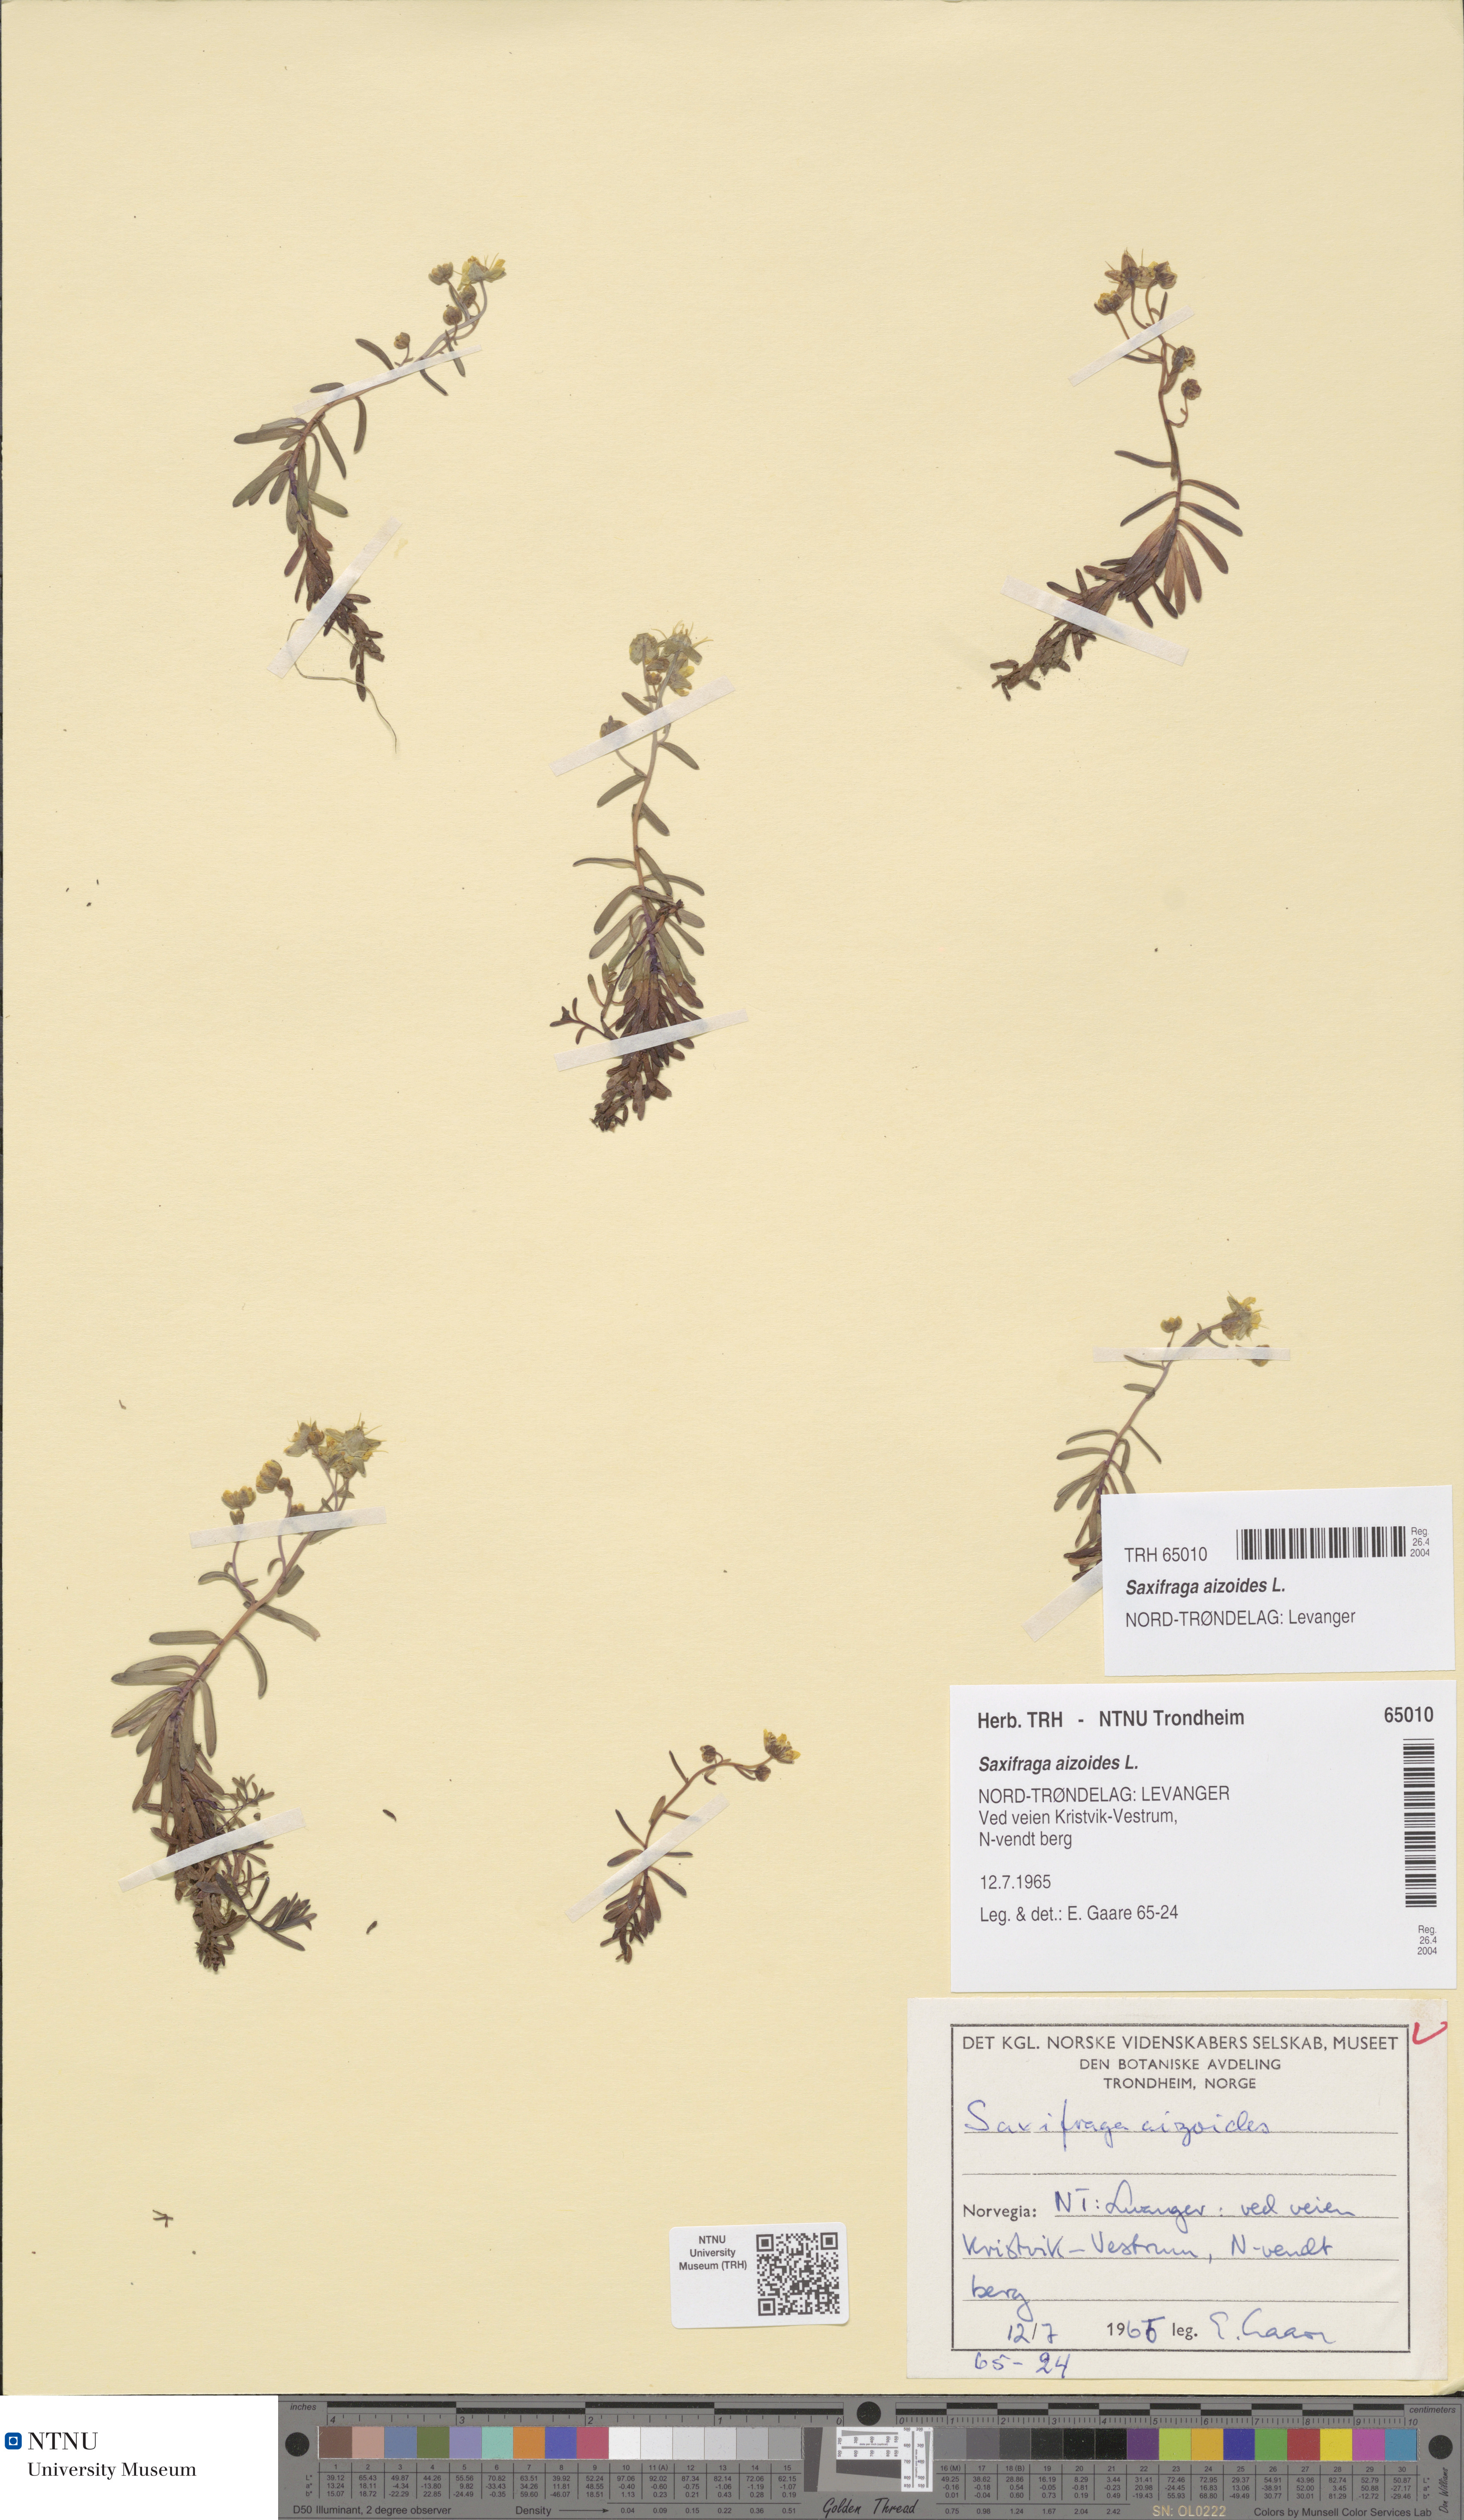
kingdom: Plantae
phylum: Tracheophyta
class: Magnoliopsida
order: Saxifragales
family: Saxifragaceae
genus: Saxifraga
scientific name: Saxifraga aizoides
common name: Yellow mountain saxifrage
